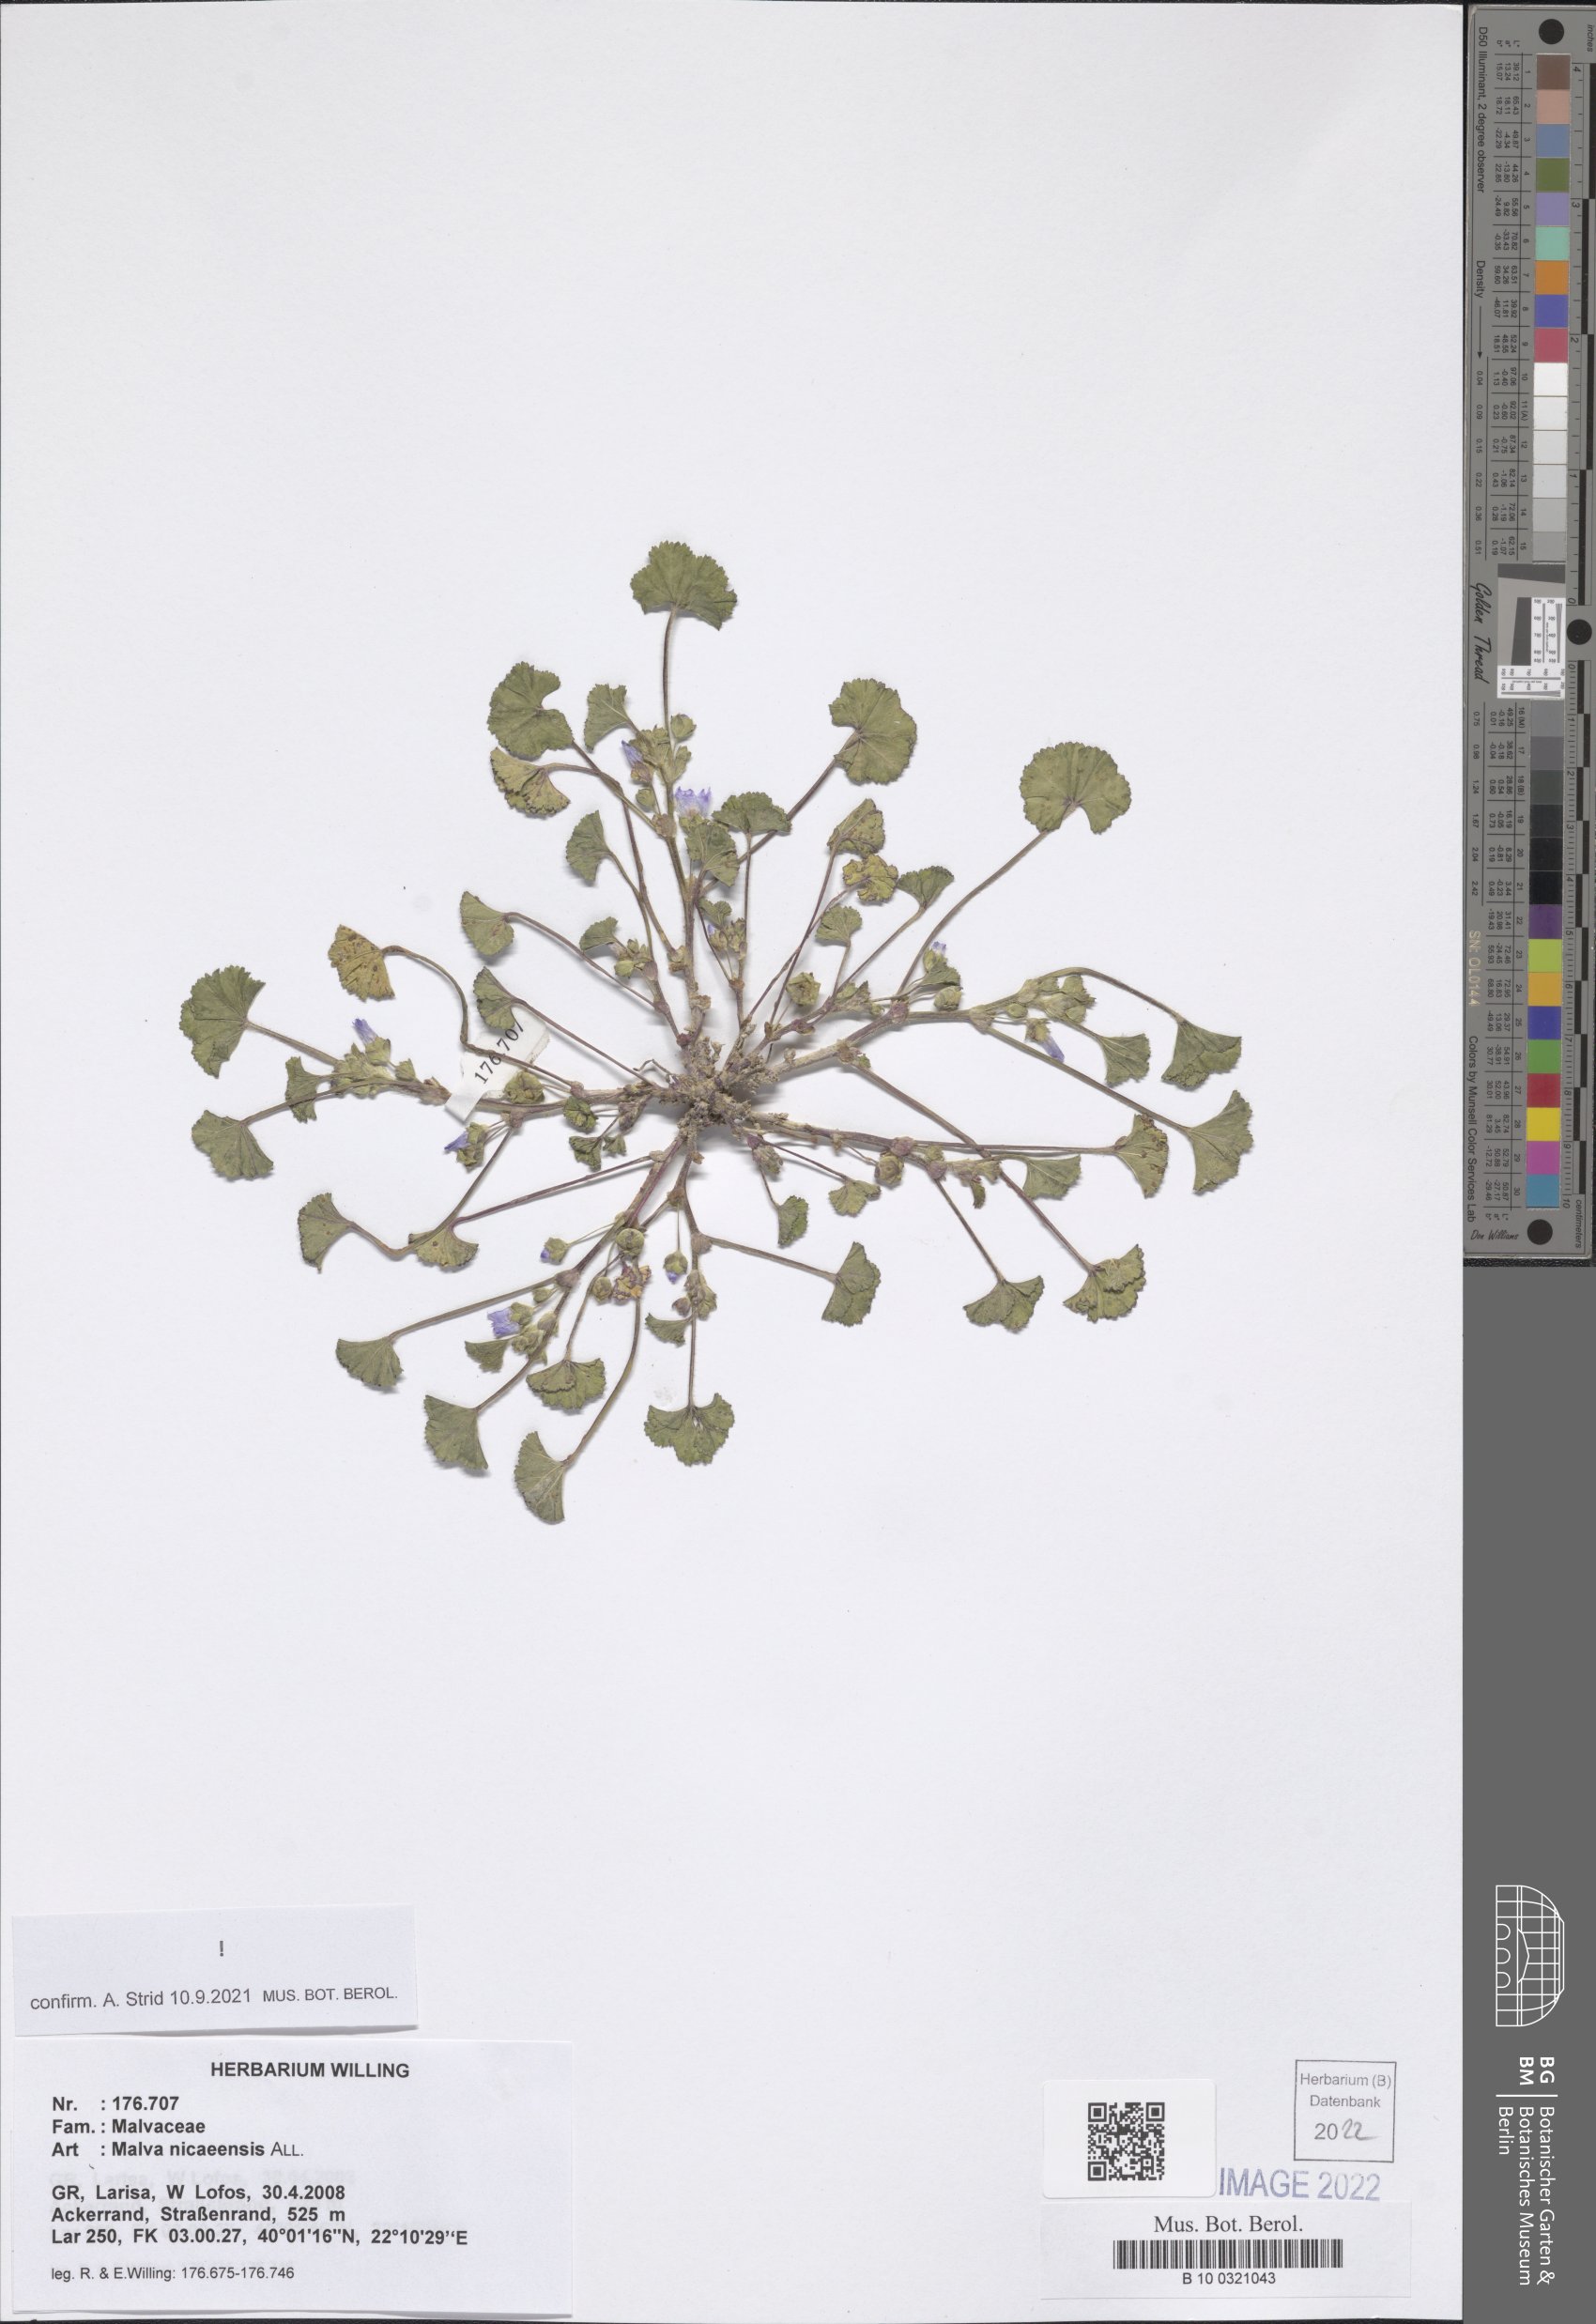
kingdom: Plantae
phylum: Tracheophyta
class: Magnoliopsida
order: Malvales
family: Malvaceae
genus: Malva
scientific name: Malva nicaeensis
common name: French mallow
